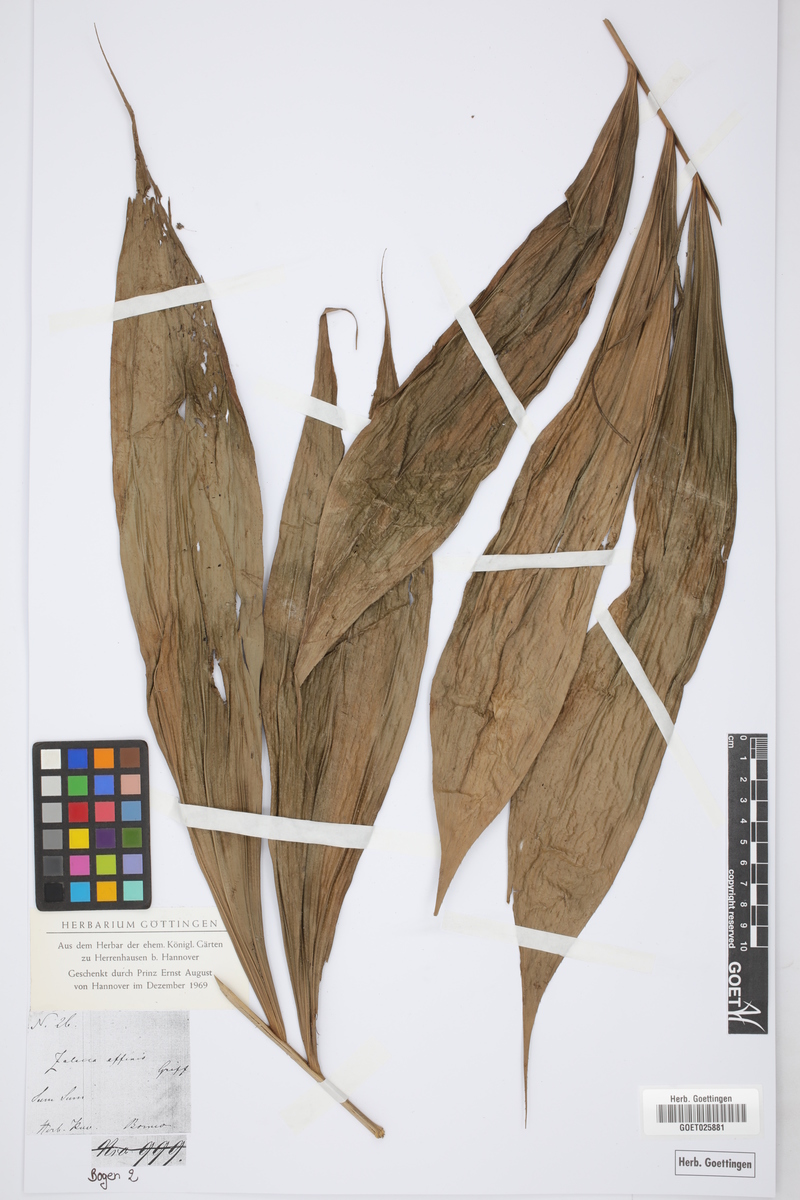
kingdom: Plantae
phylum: Tracheophyta
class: Liliopsida
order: Arecales
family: Arecaceae
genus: Salacca
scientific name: Salacca affinis
